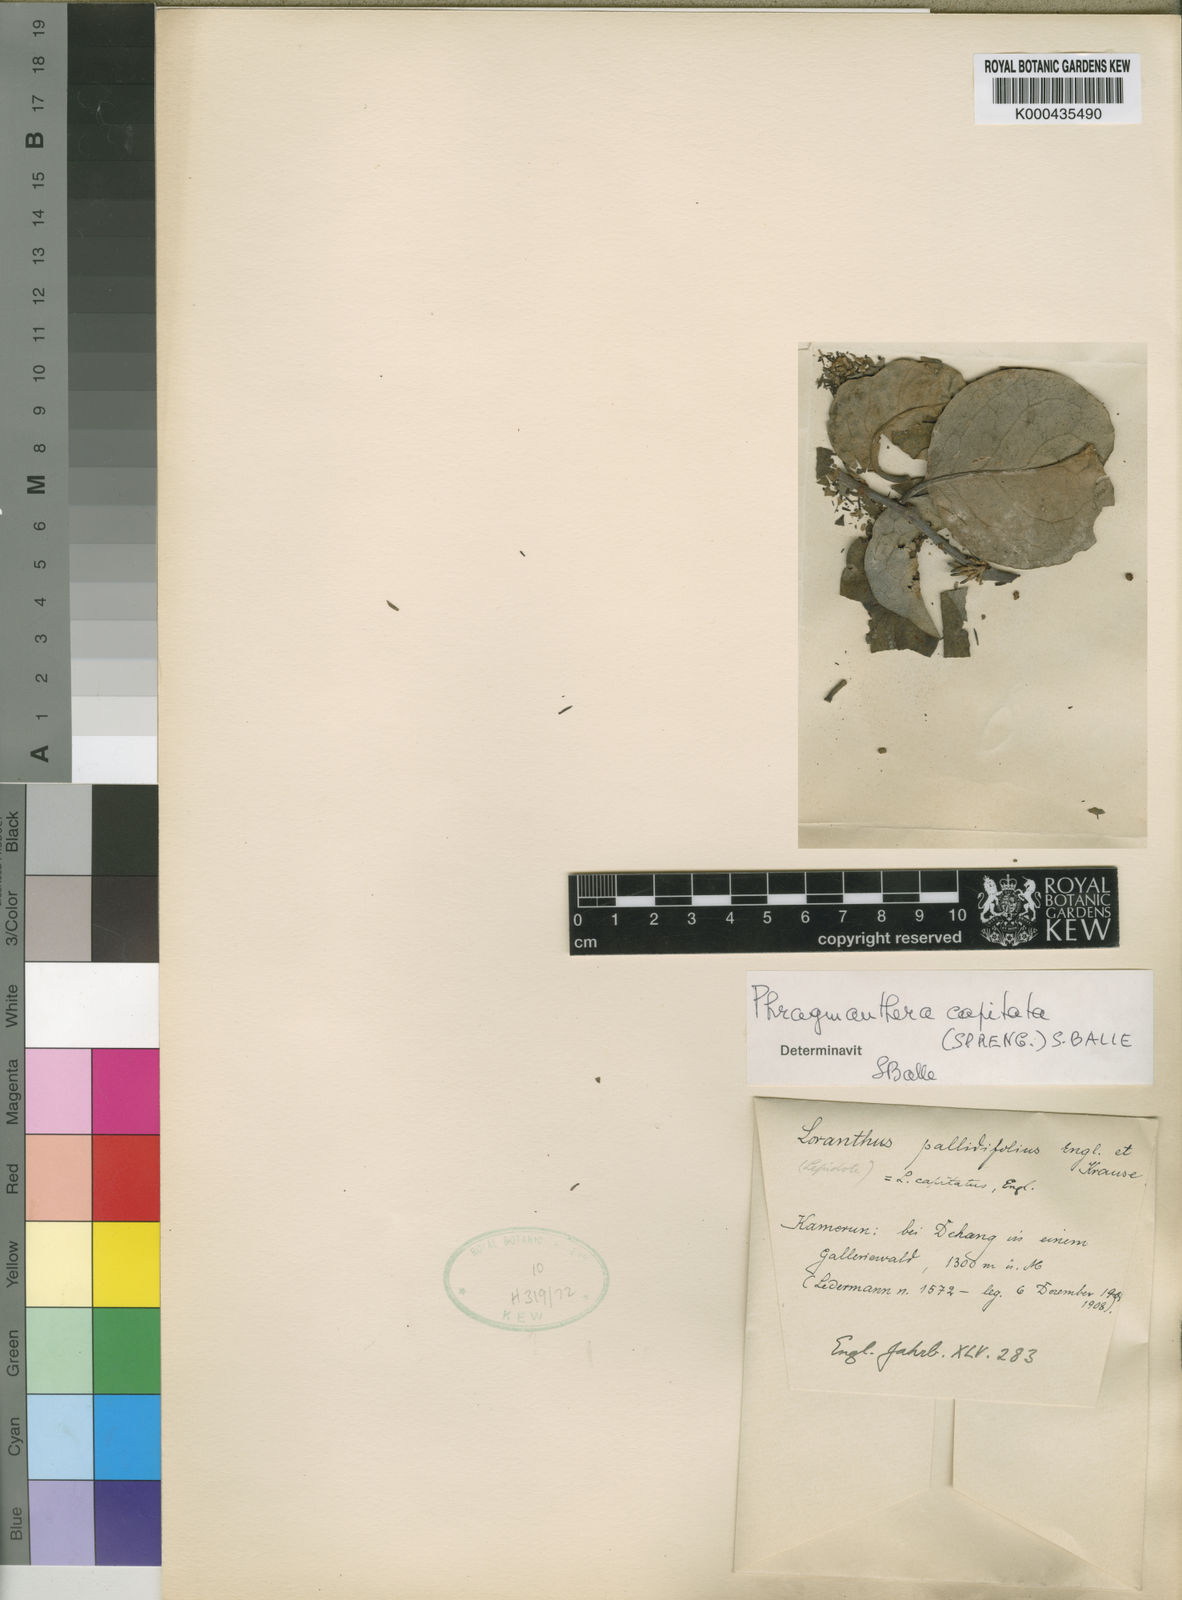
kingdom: Plantae
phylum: Tracheophyta
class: Magnoliopsida
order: Santalales
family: Loranthaceae
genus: Phragmanthera
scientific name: Phragmanthera capitata
